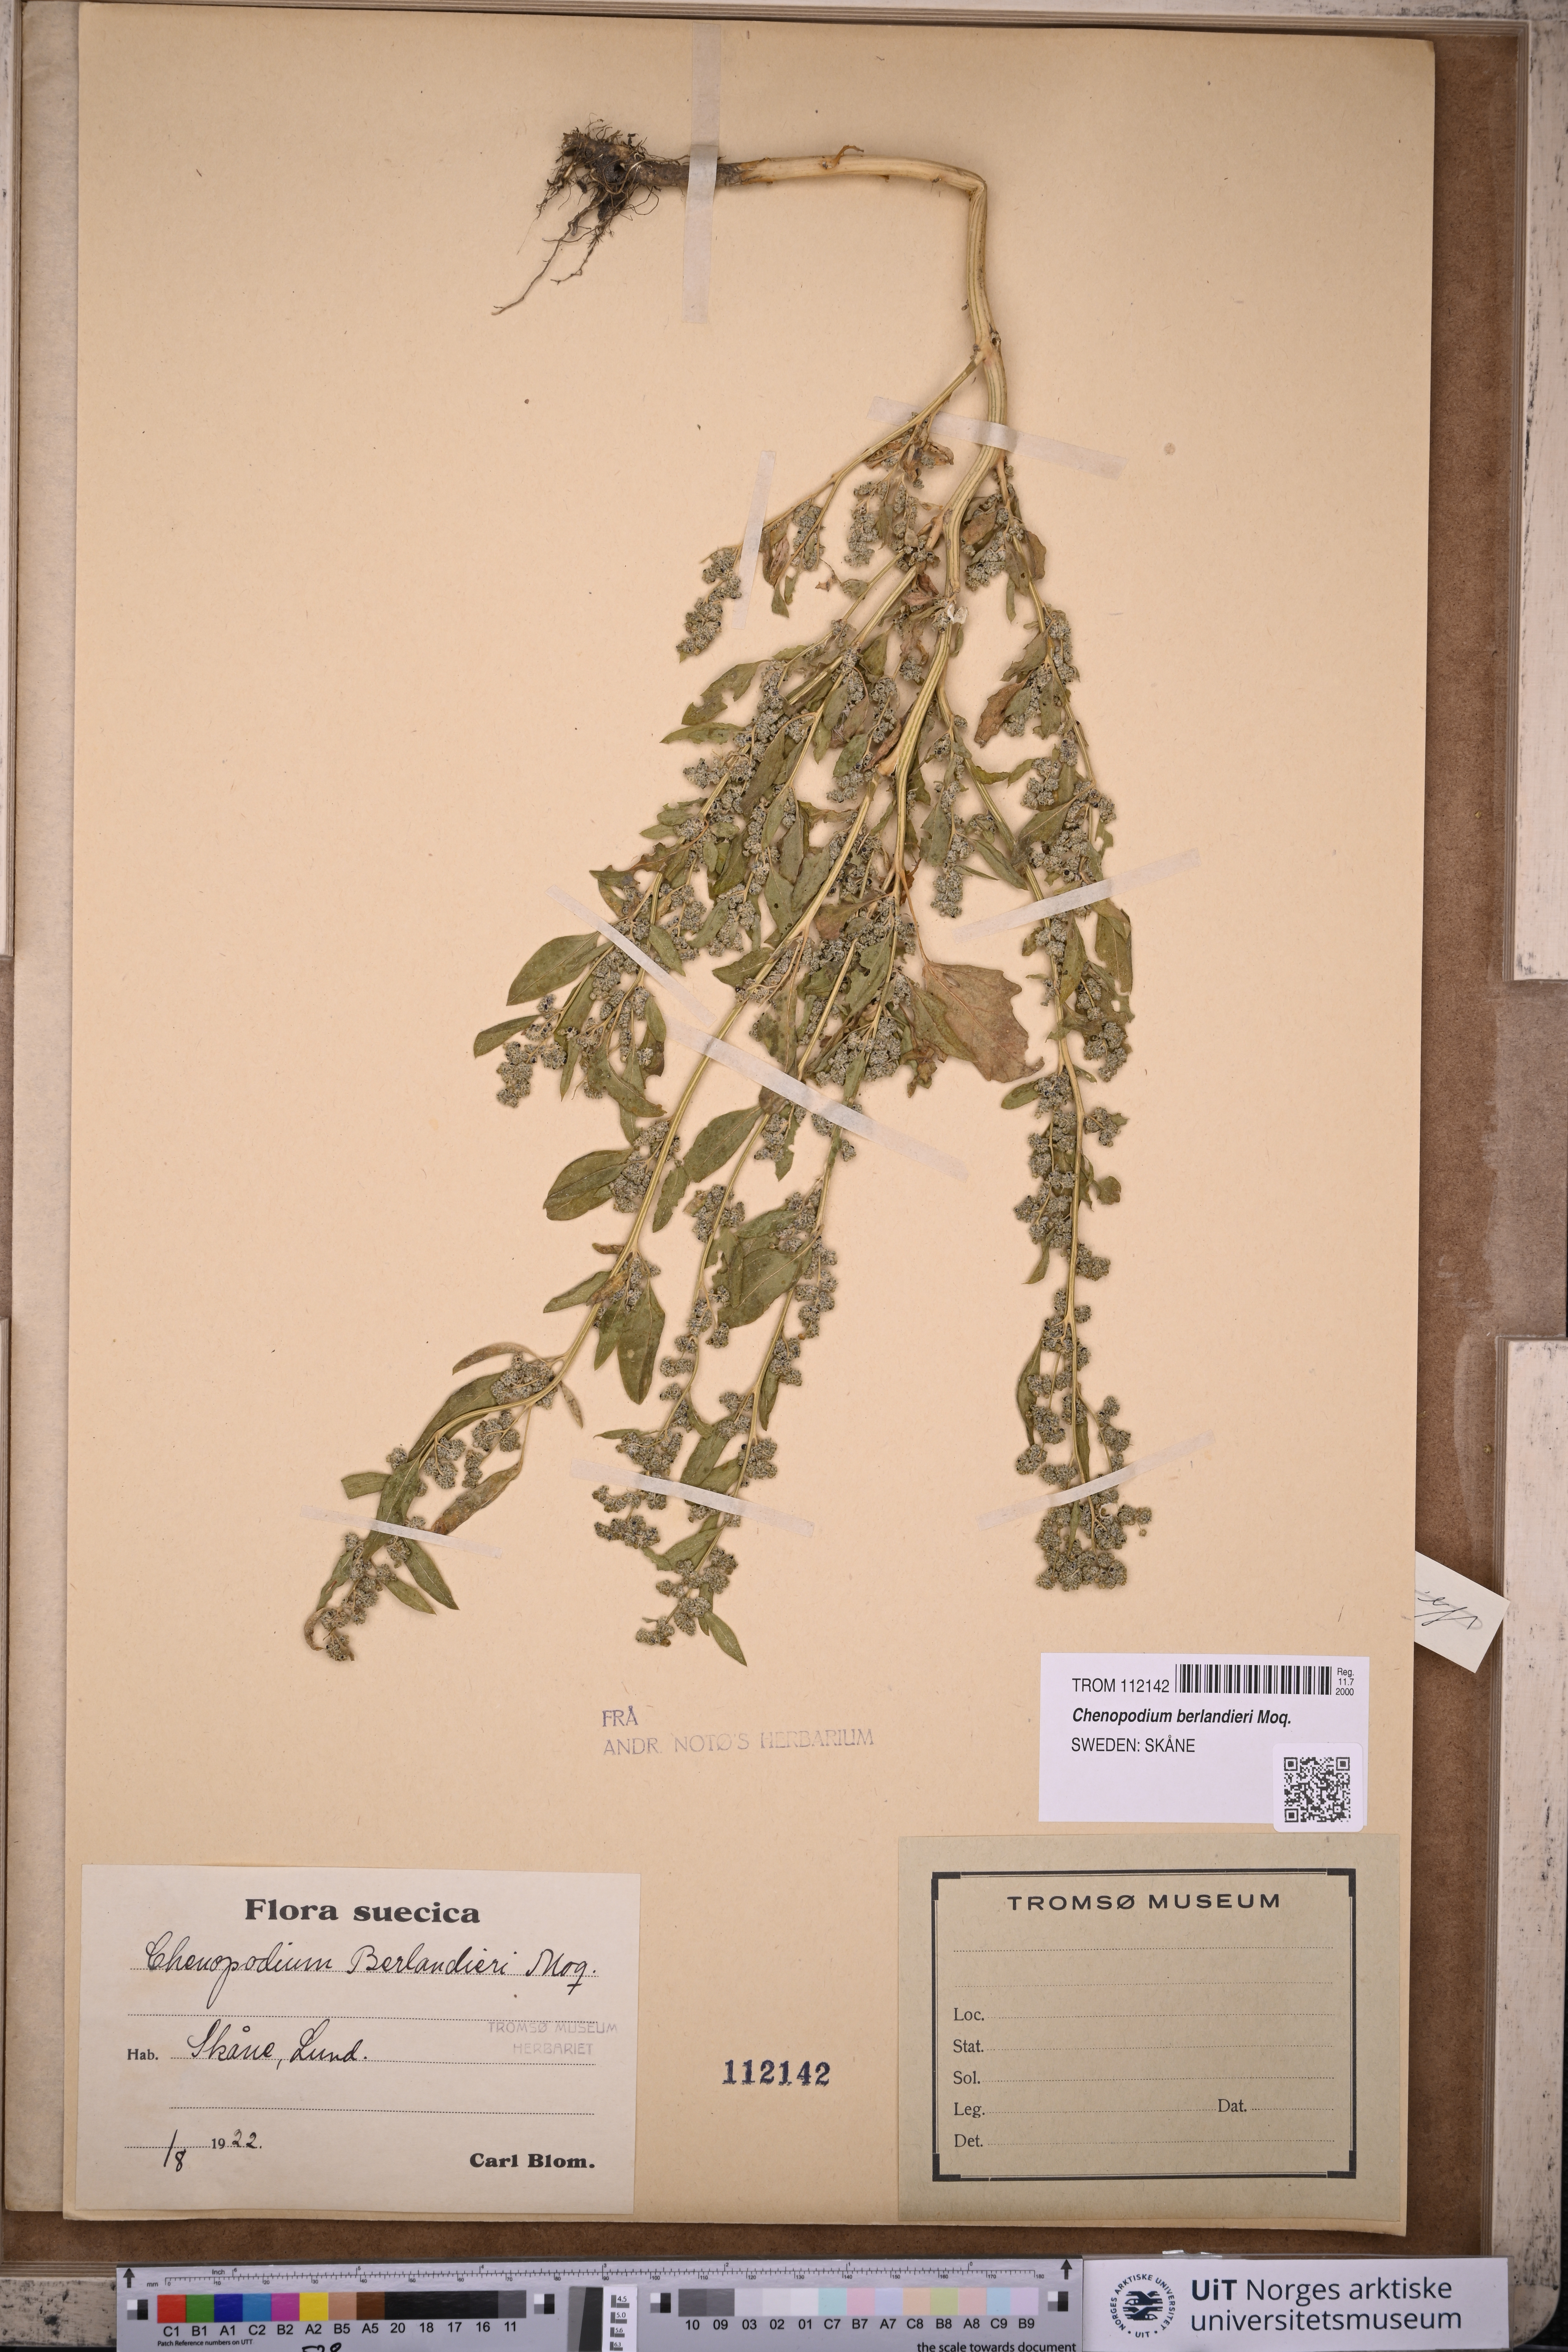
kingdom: Plantae
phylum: Tracheophyta
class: Magnoliopsida
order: Caryophyllales
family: Amaranthaceae
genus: Chenopodium
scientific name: Chenopodium berlandieri
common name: Pit-seed goosefoot
